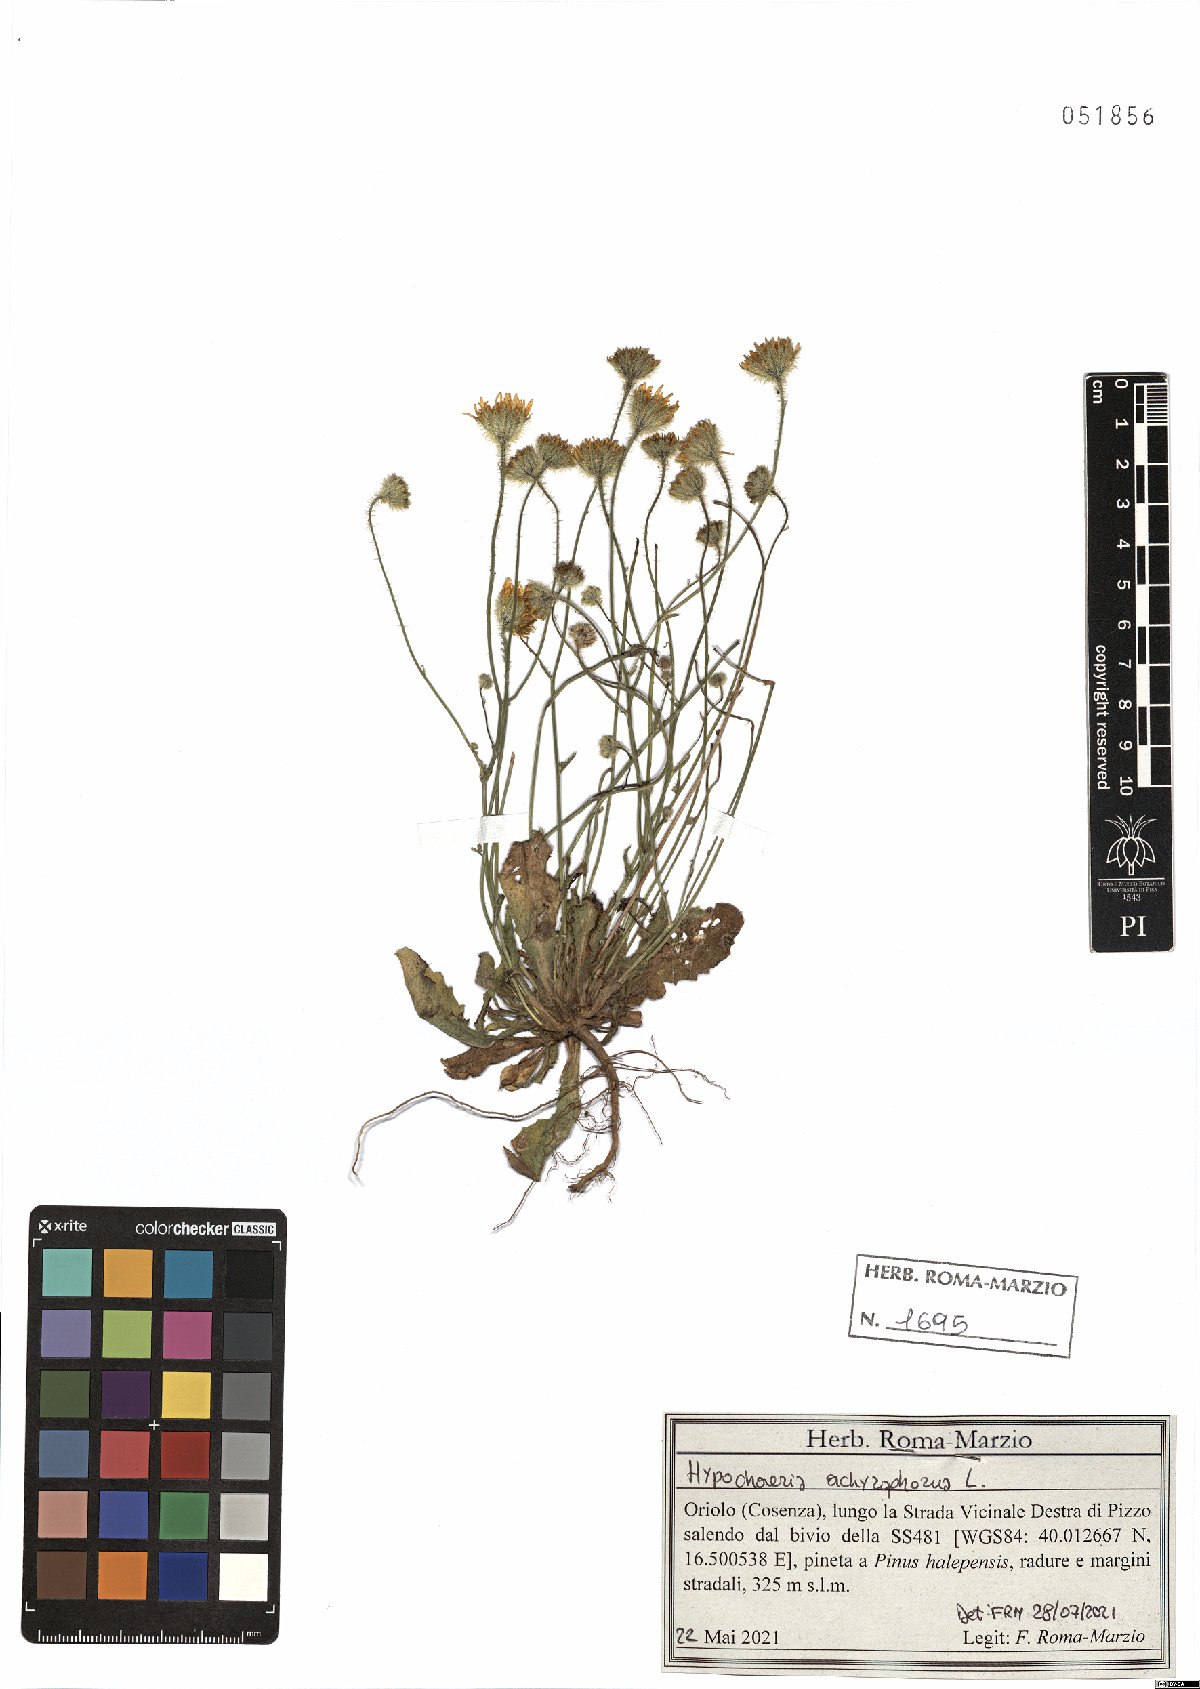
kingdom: Plantae
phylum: Tracheophyta
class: Magnoliopsida
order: Asterales
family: Asteraceae
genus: Achyrophorus
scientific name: Achyrophorus valdesii
